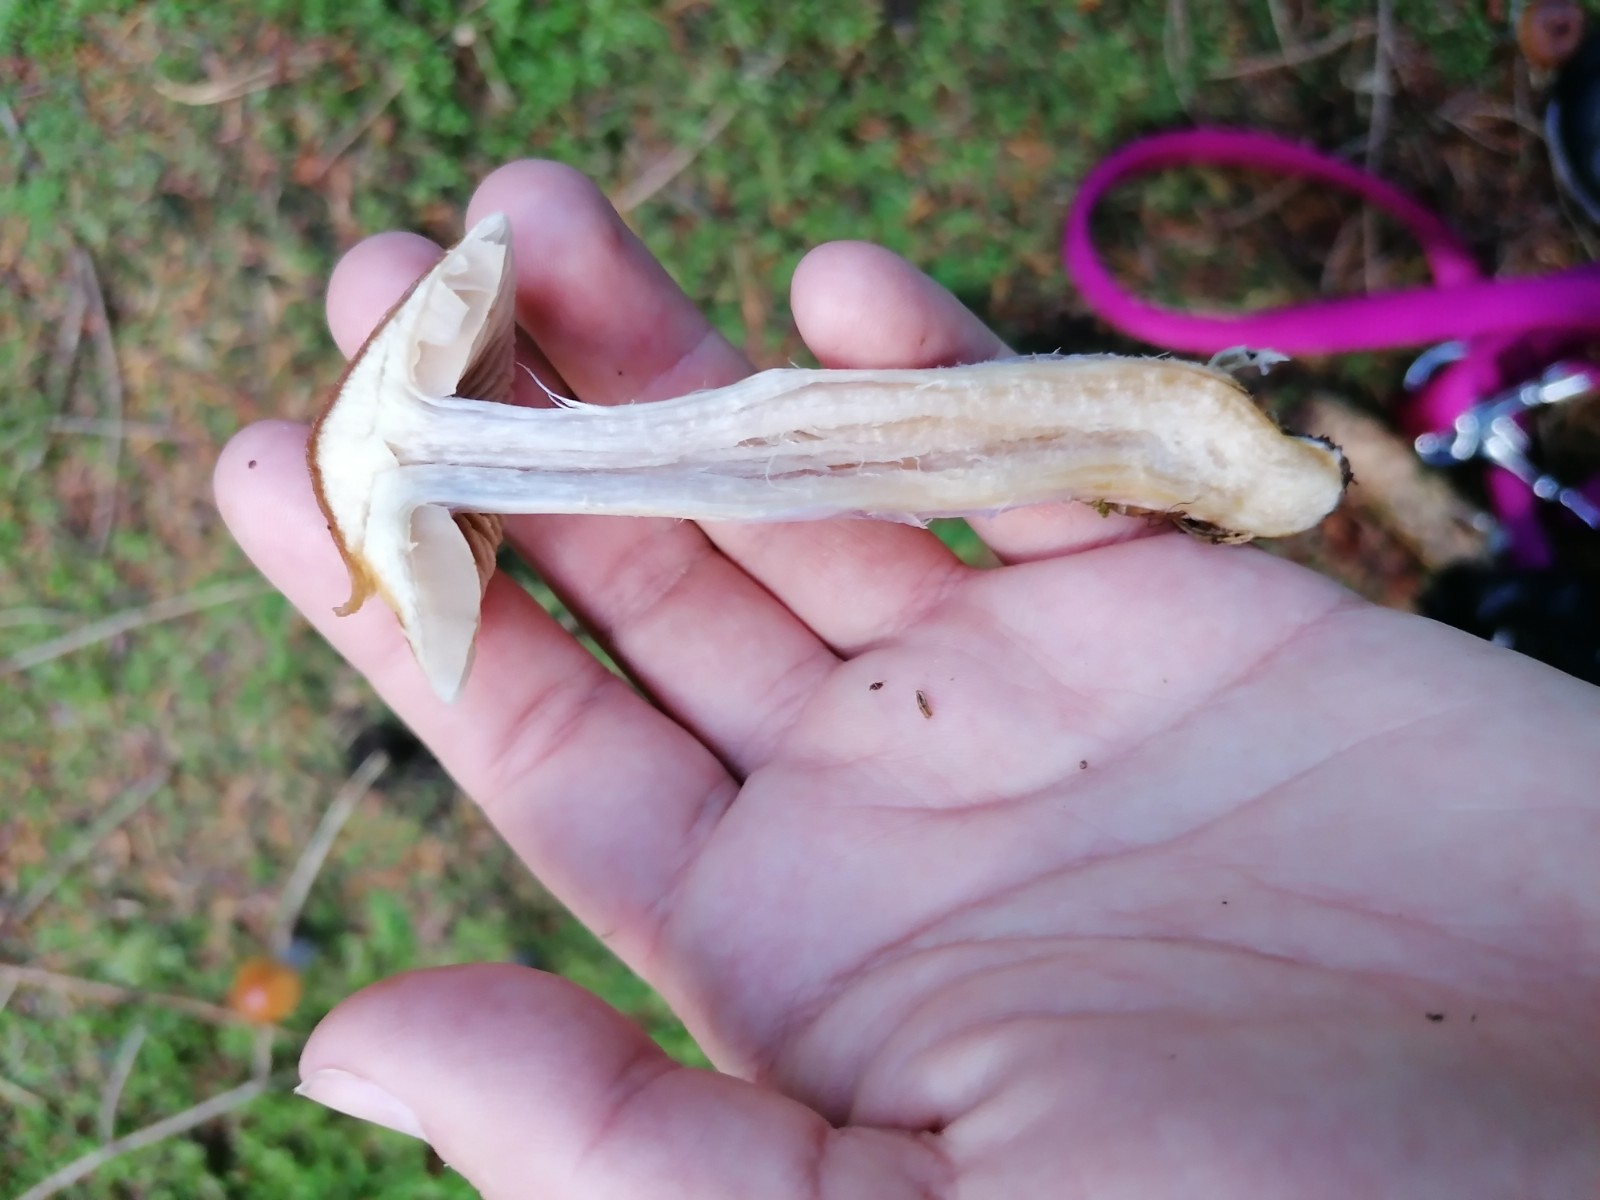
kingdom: Fungi
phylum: Basidiomycota
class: Agaricomycetes
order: Agaricales
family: Cortinariaceae
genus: Cortinarius
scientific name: Cortinarius collinitus
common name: spættet slørhat
